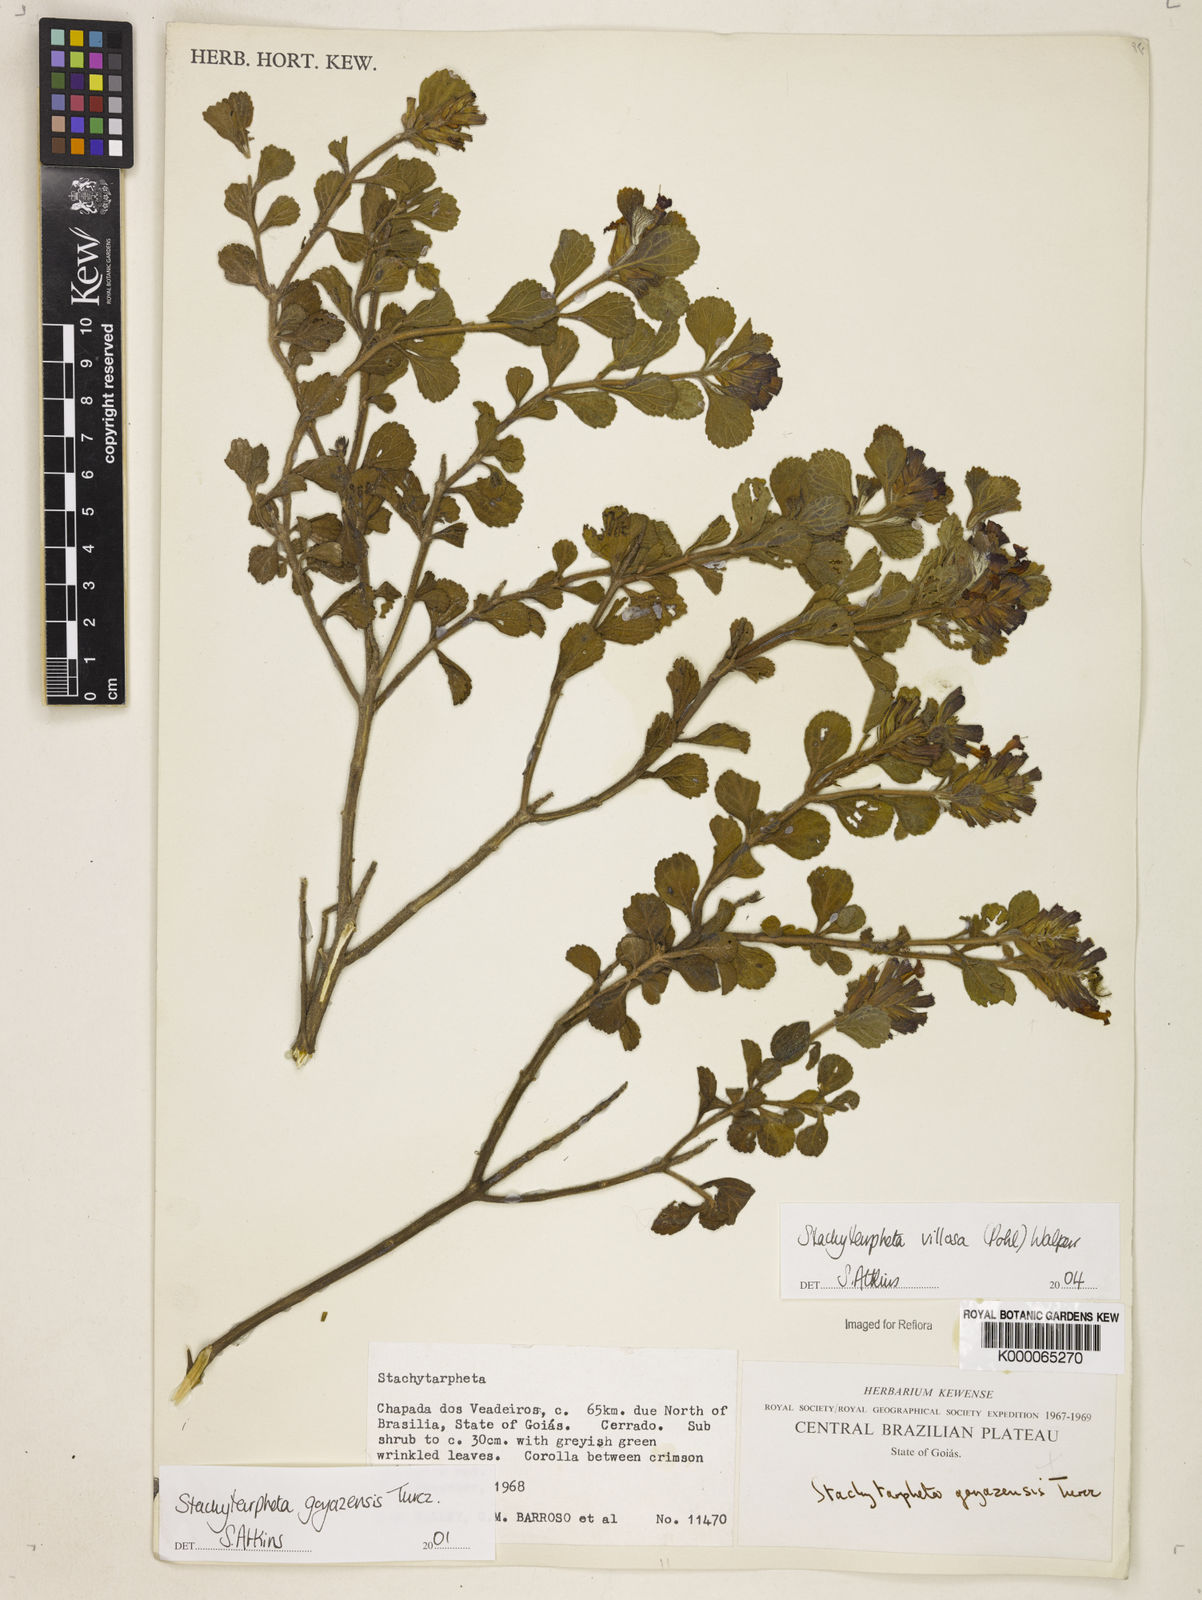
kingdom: Plantae
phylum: Tracheophyta
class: Magnoliopsida
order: Lamiales
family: Verbenaceae
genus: Stachytarpheta
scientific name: Stachytarpheta villosa
